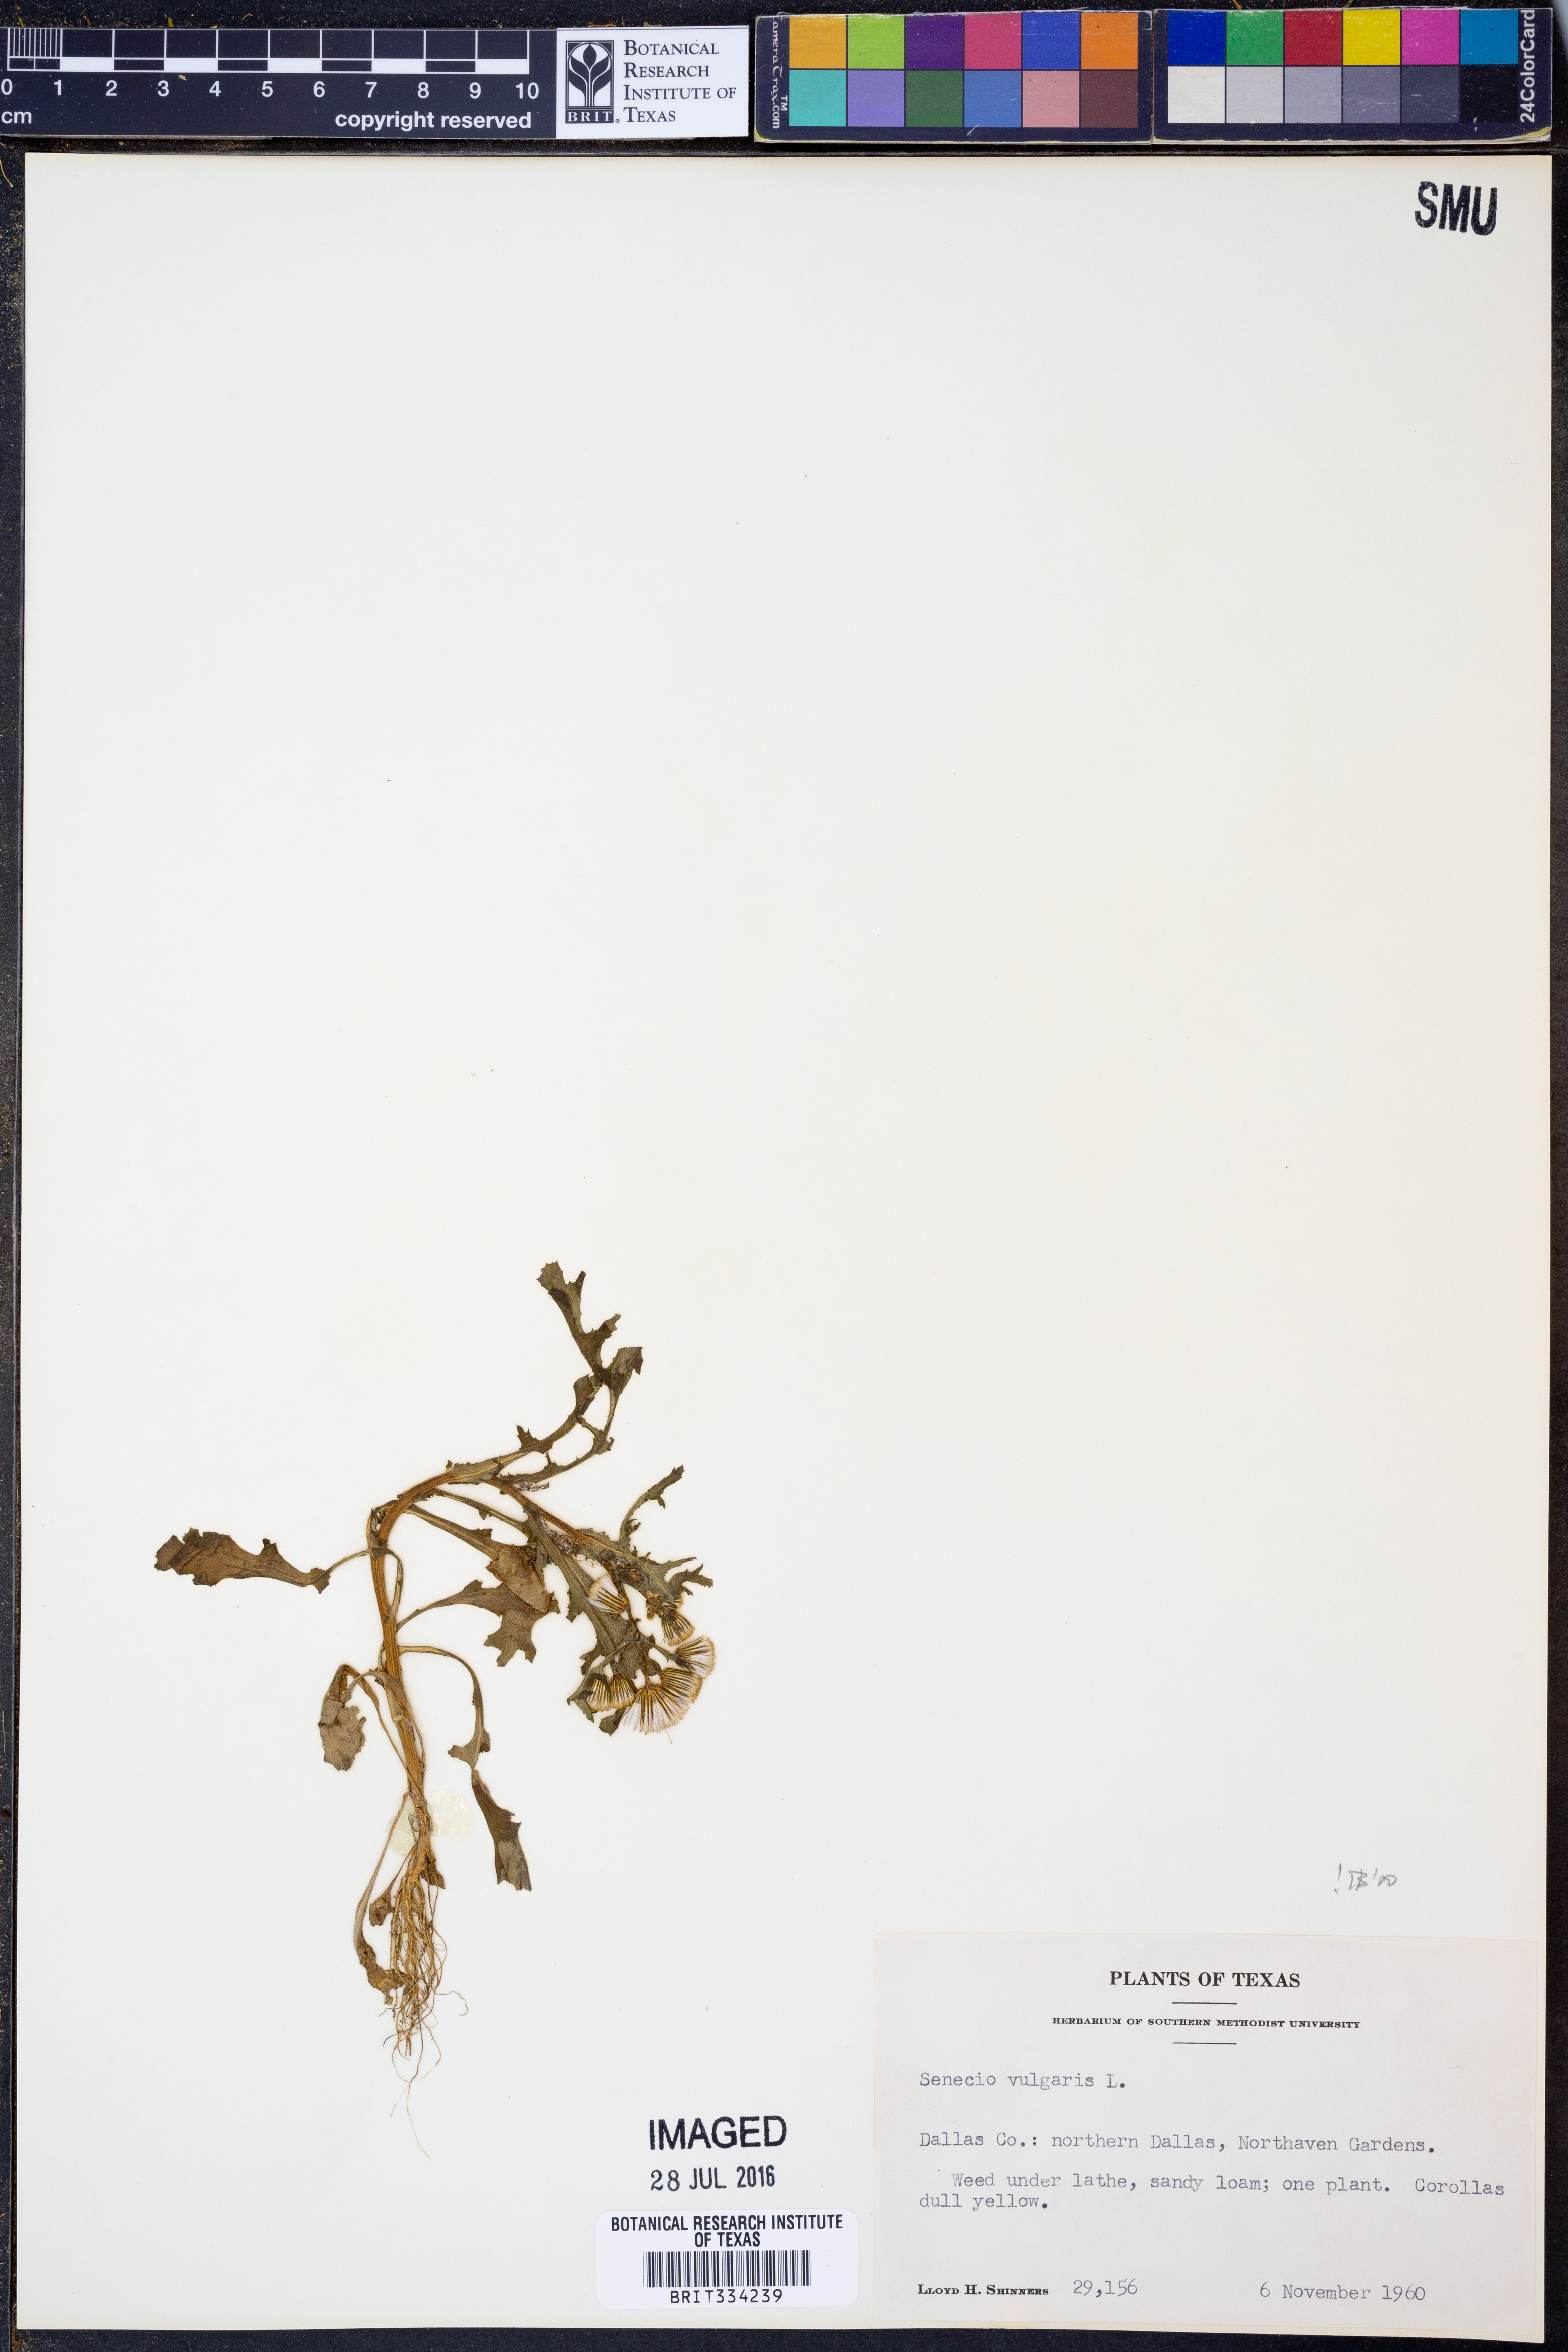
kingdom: Plantae
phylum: Tracheophyta
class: Magnoliopsida
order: Asterales
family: Asteraceae
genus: Senecio
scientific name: Senecio vulgaris
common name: Old-man-in-the-spring
